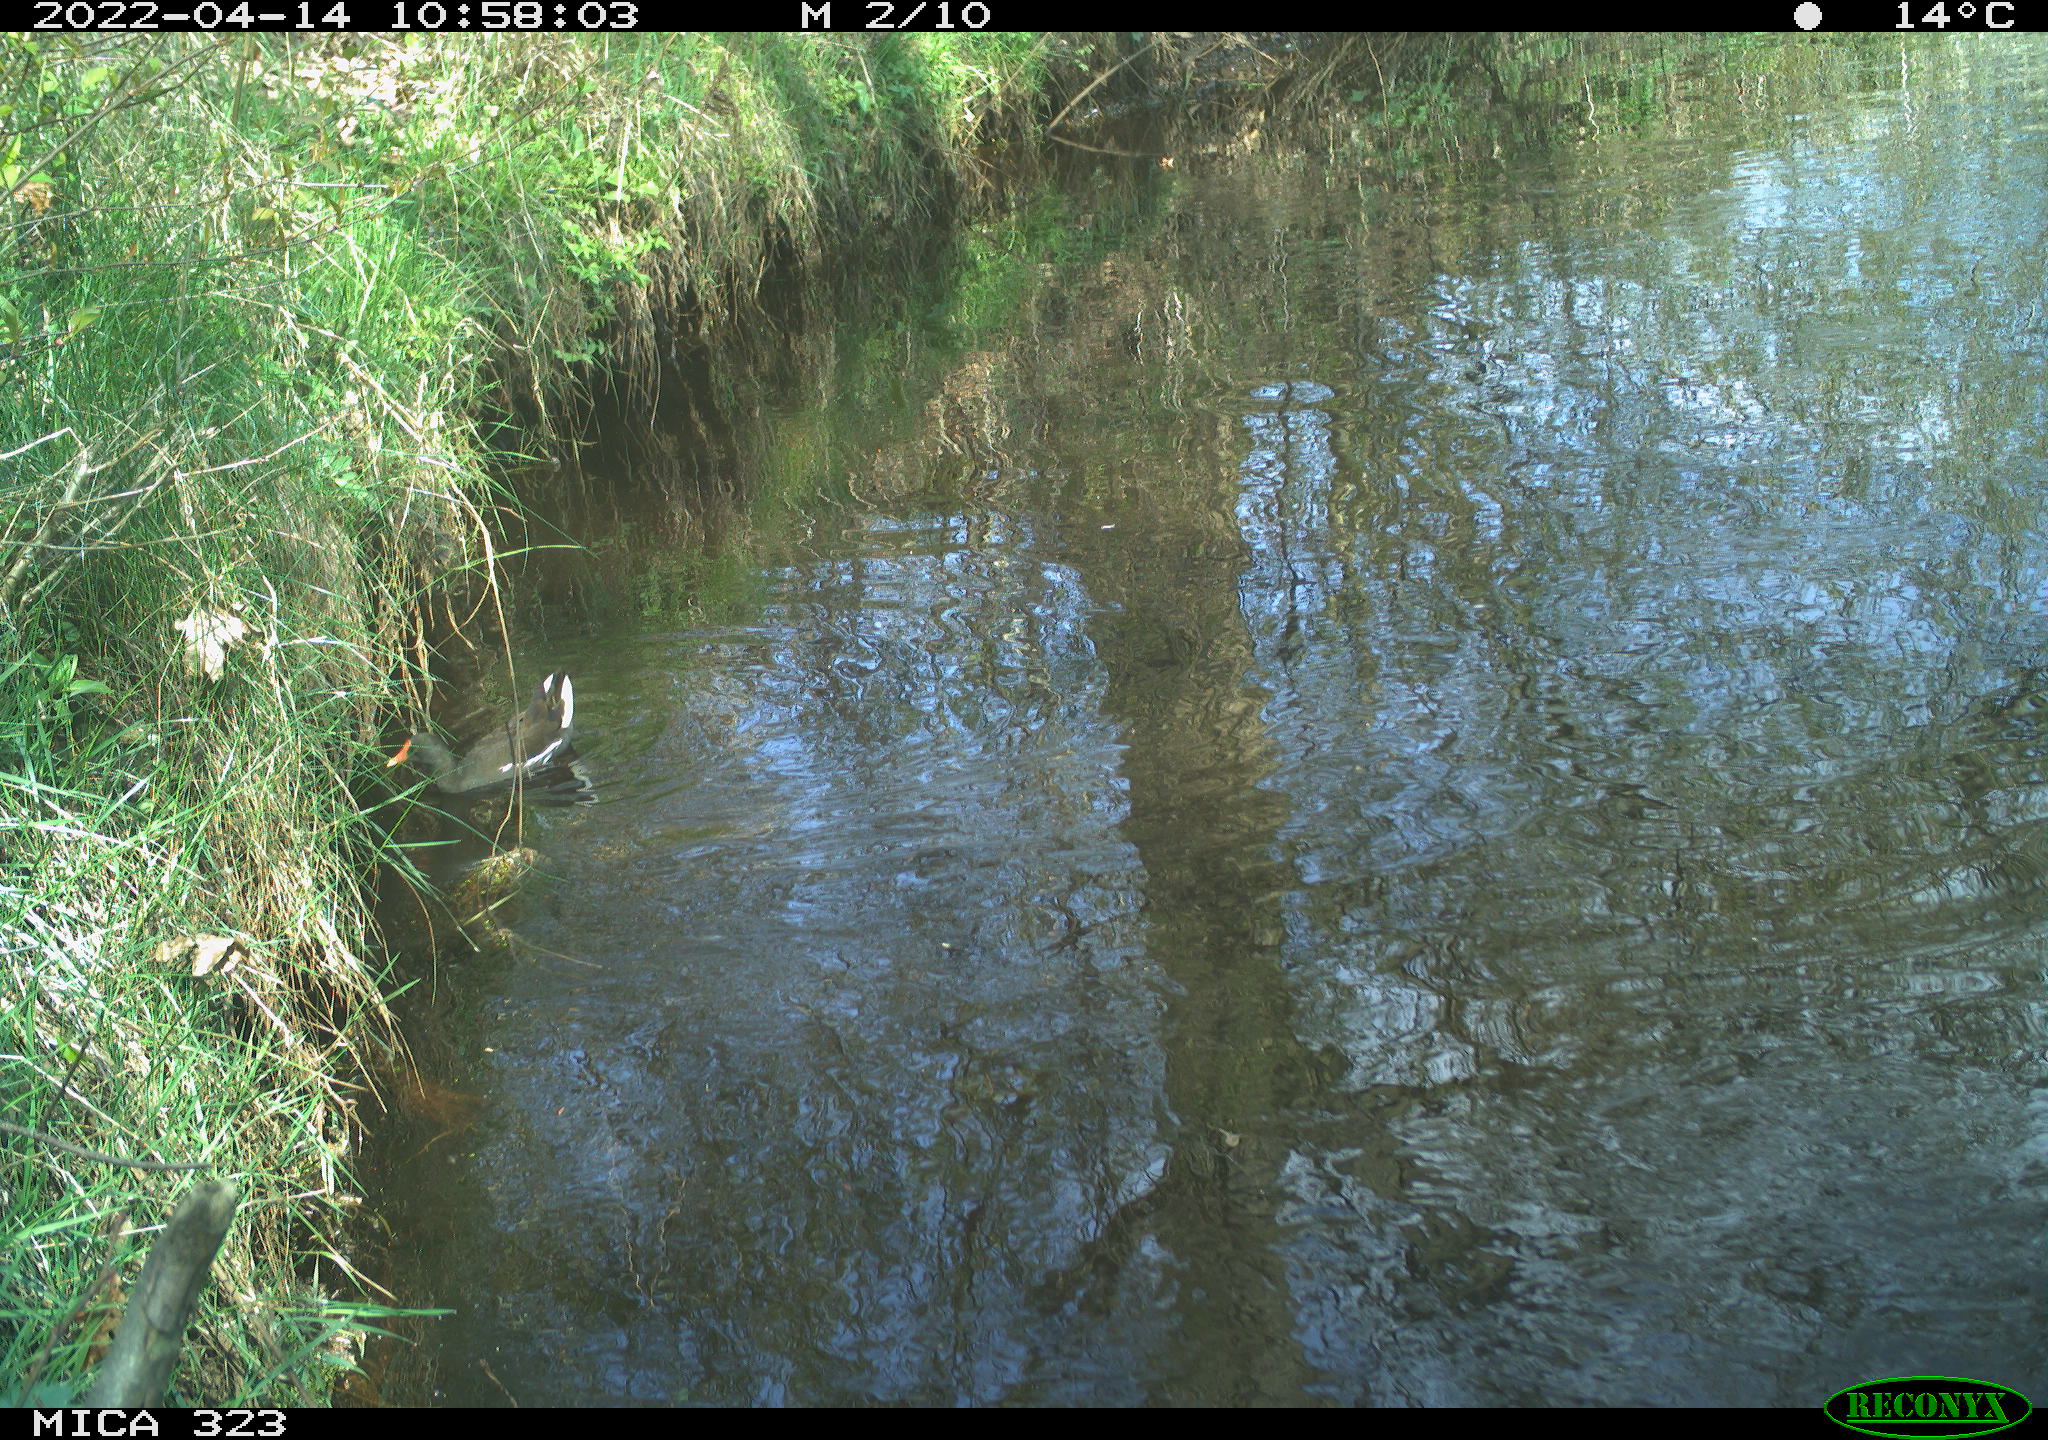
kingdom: Animalia
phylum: Chordata
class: Aves
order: Gruiformes
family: Rallidae
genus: Gallinula
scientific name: Gallinula chloropus
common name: Common moorhen
